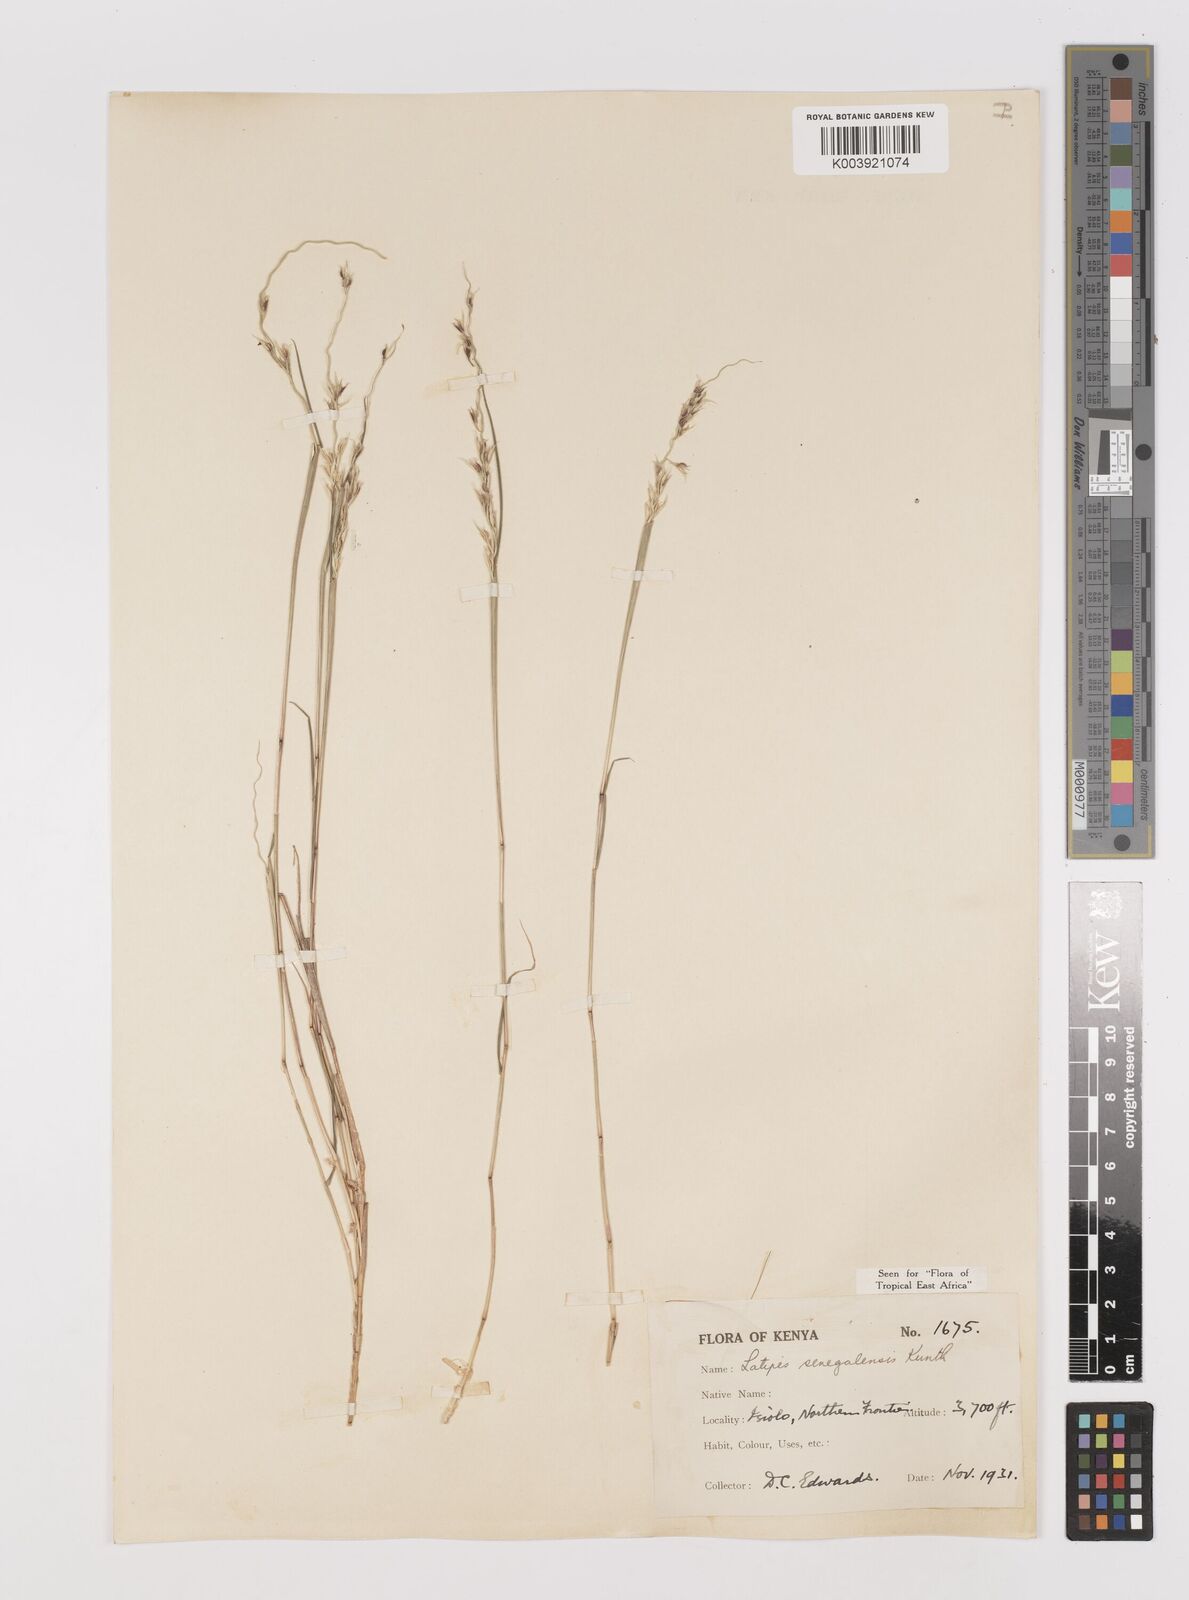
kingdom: Plantae
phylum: Tracheophyta
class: Liliopsida
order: Poales
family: Poaceae
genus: Leptothrium
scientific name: Leptothrium senegalense
